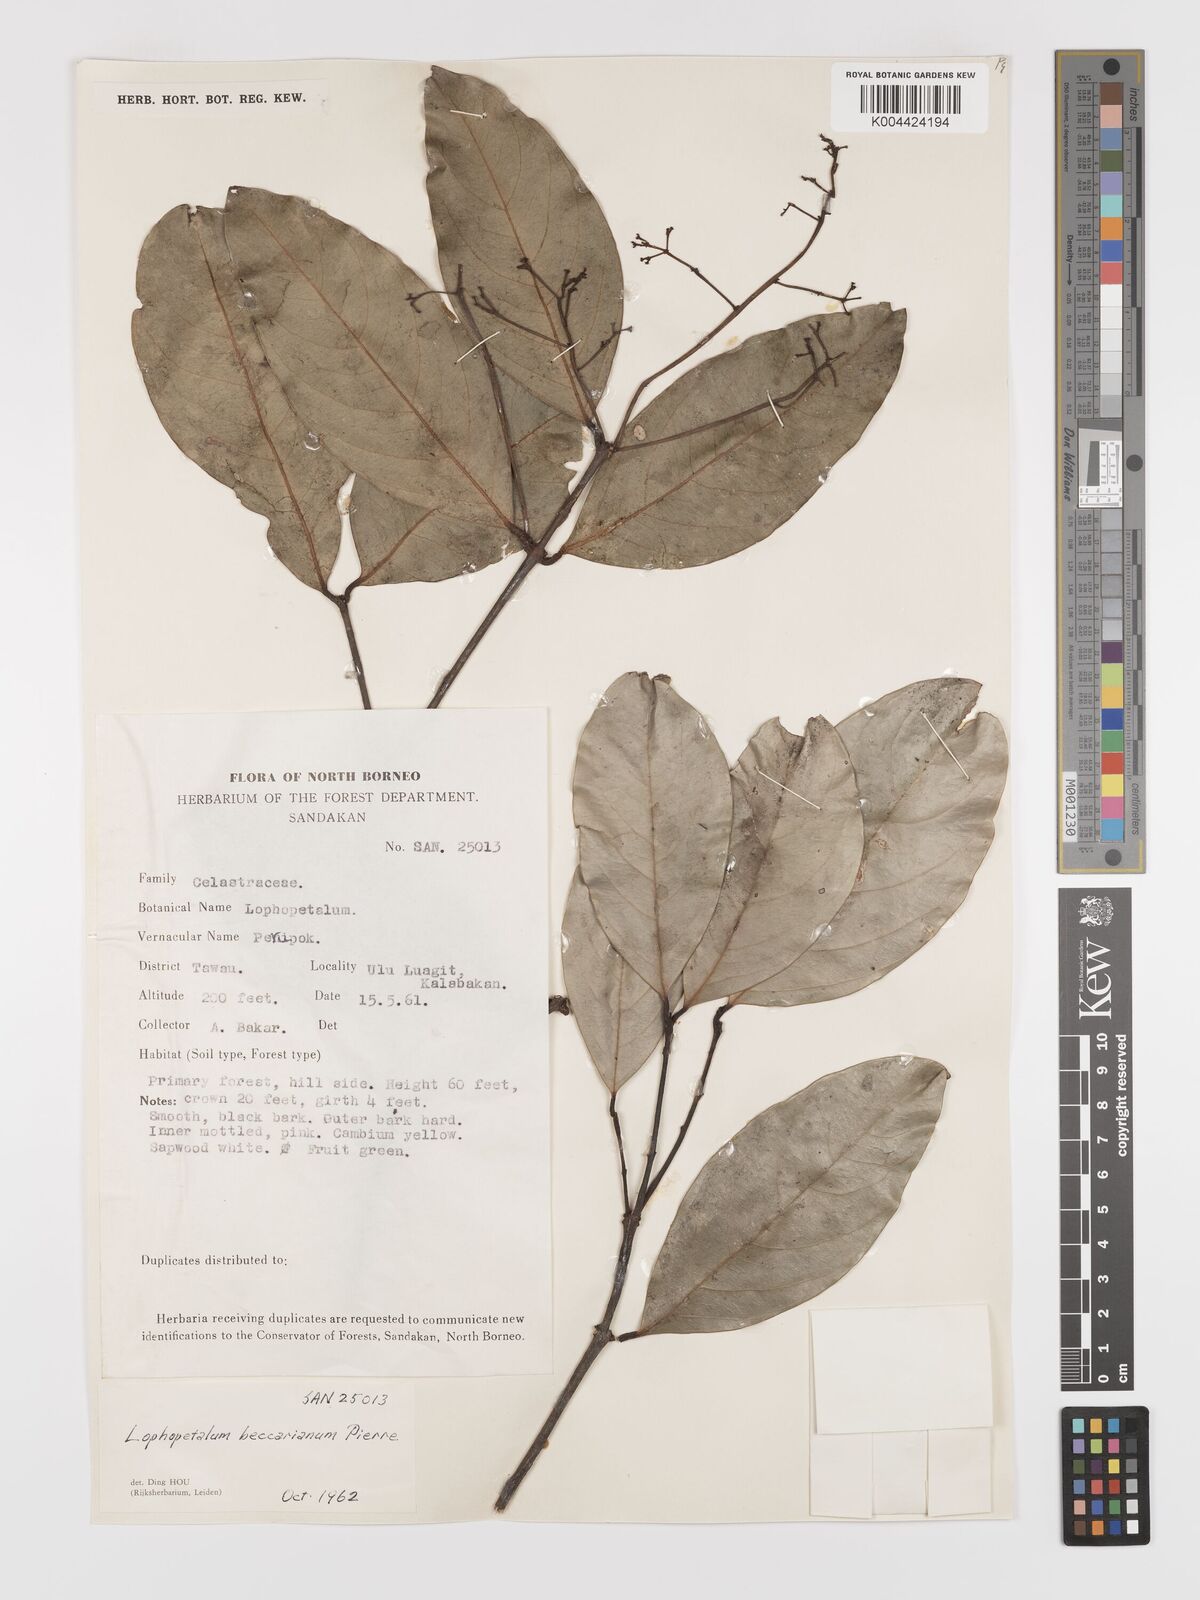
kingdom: Plantae
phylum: Tracheophyta
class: Magnoliopsida
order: Celastrales
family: Celastraceae
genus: Lophopetalum
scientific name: Lophopetalum beccarianum
